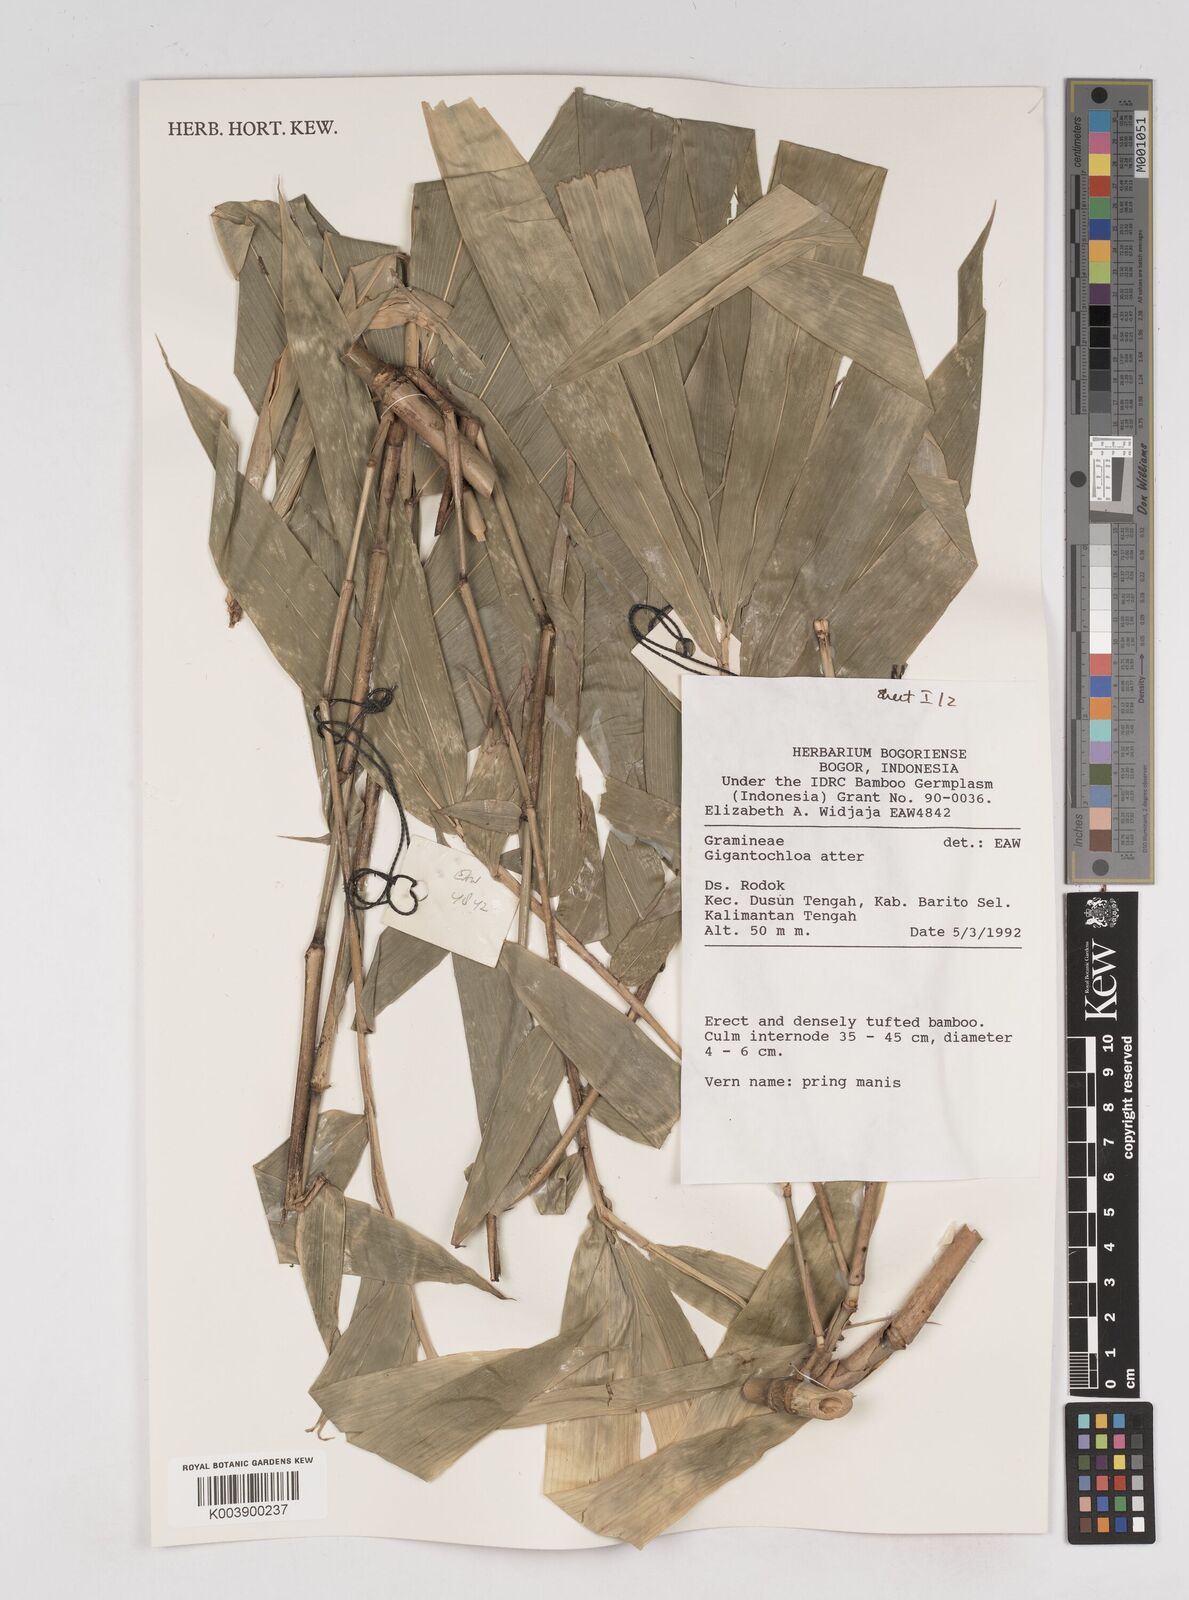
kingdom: Plantae
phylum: Tracheophyta
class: Liliopsida
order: Poales
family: Poaceae
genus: Gigantochloa
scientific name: Gigantochloa atter
